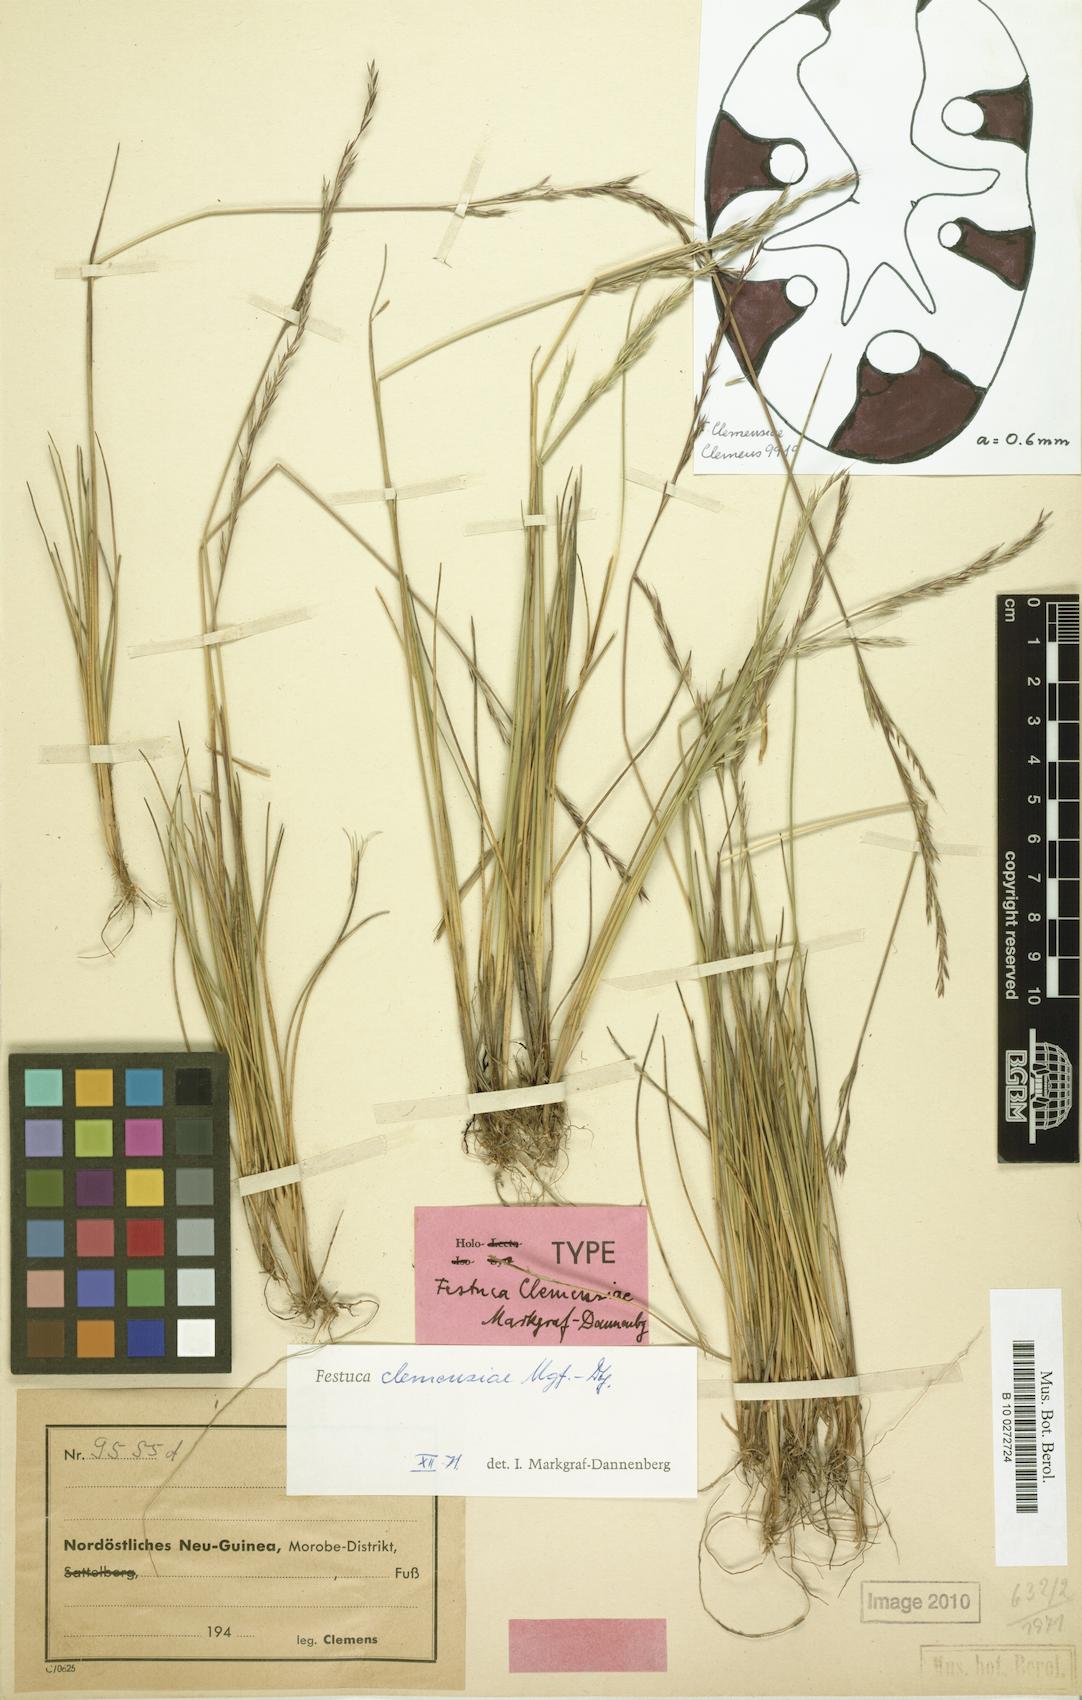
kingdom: Plantae
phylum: Tracheophyta
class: Liliopsida
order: Poales
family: Poaceae
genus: Festuca
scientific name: Festuca
